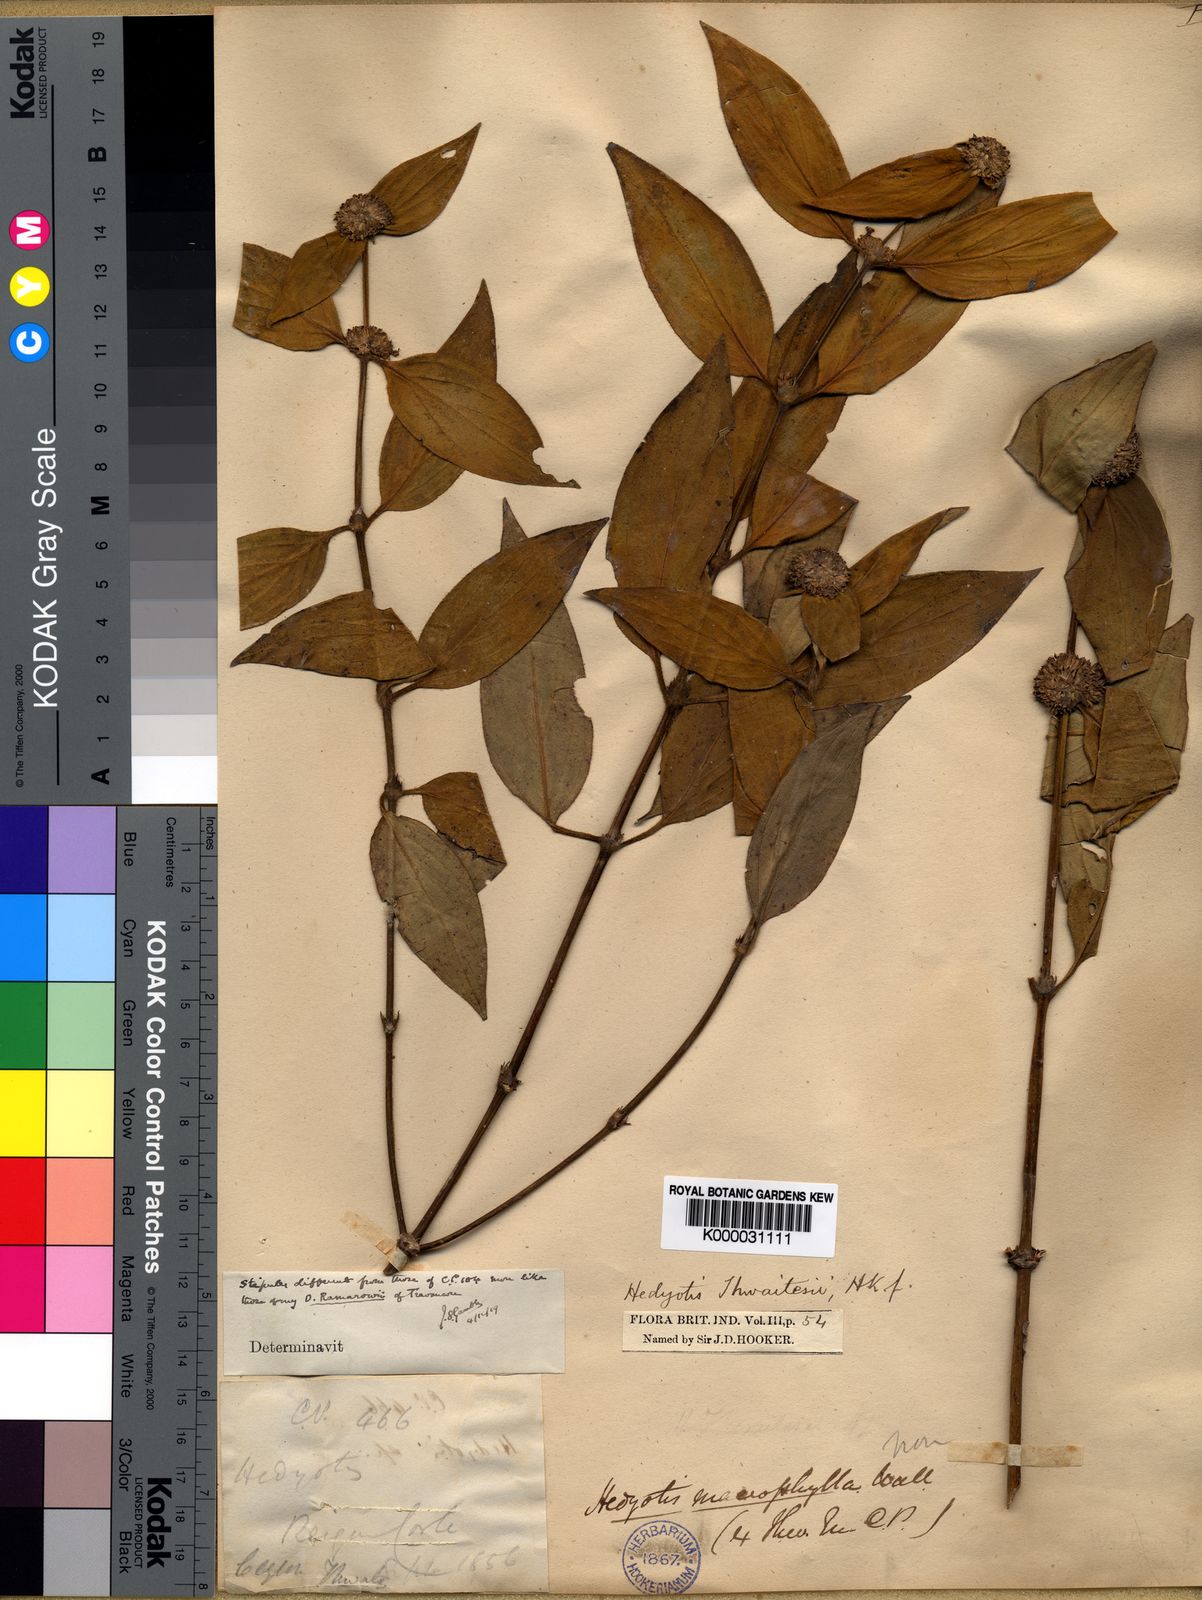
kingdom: Plantae
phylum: Tracheophyta
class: Magnoliopsida
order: Gentianales
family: Rubiaceae
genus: Hedyotis
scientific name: Hedyotis thwaitesii
